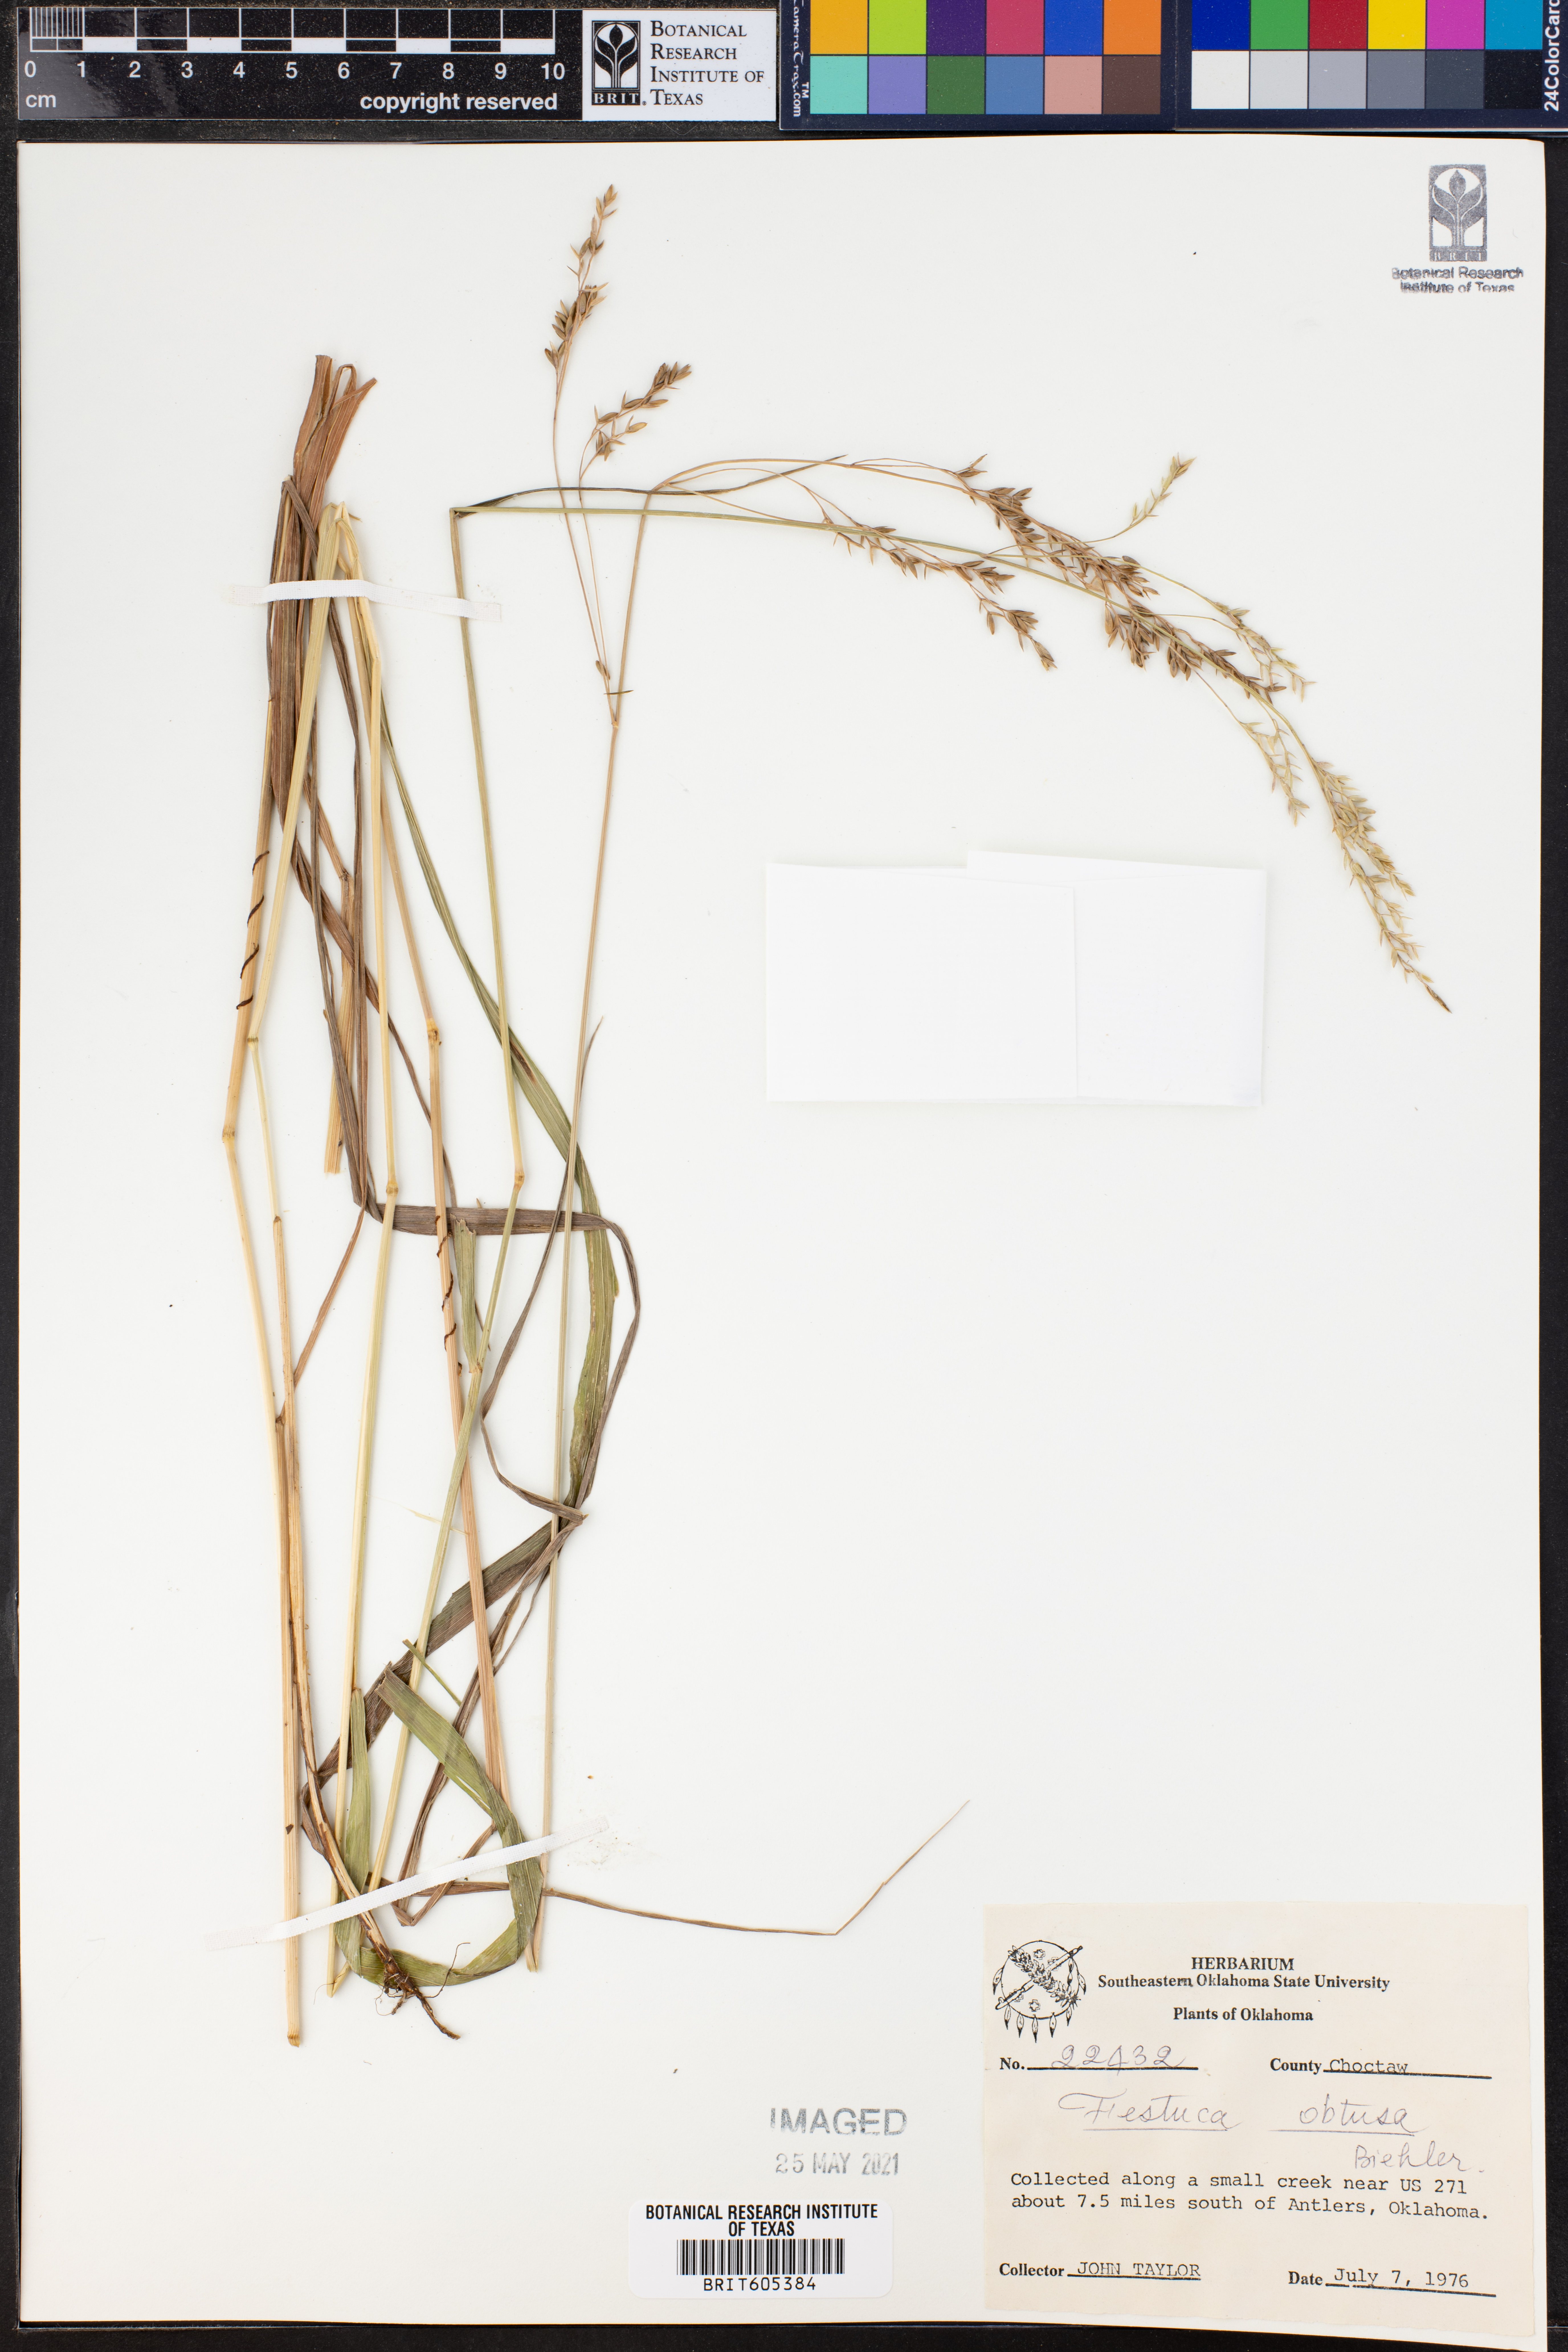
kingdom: Plantae
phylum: Tracheophyta
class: Liliopsida
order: Poales
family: Poaceae
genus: Festuca
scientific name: Festuca subverticillata
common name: Nodding fescue
